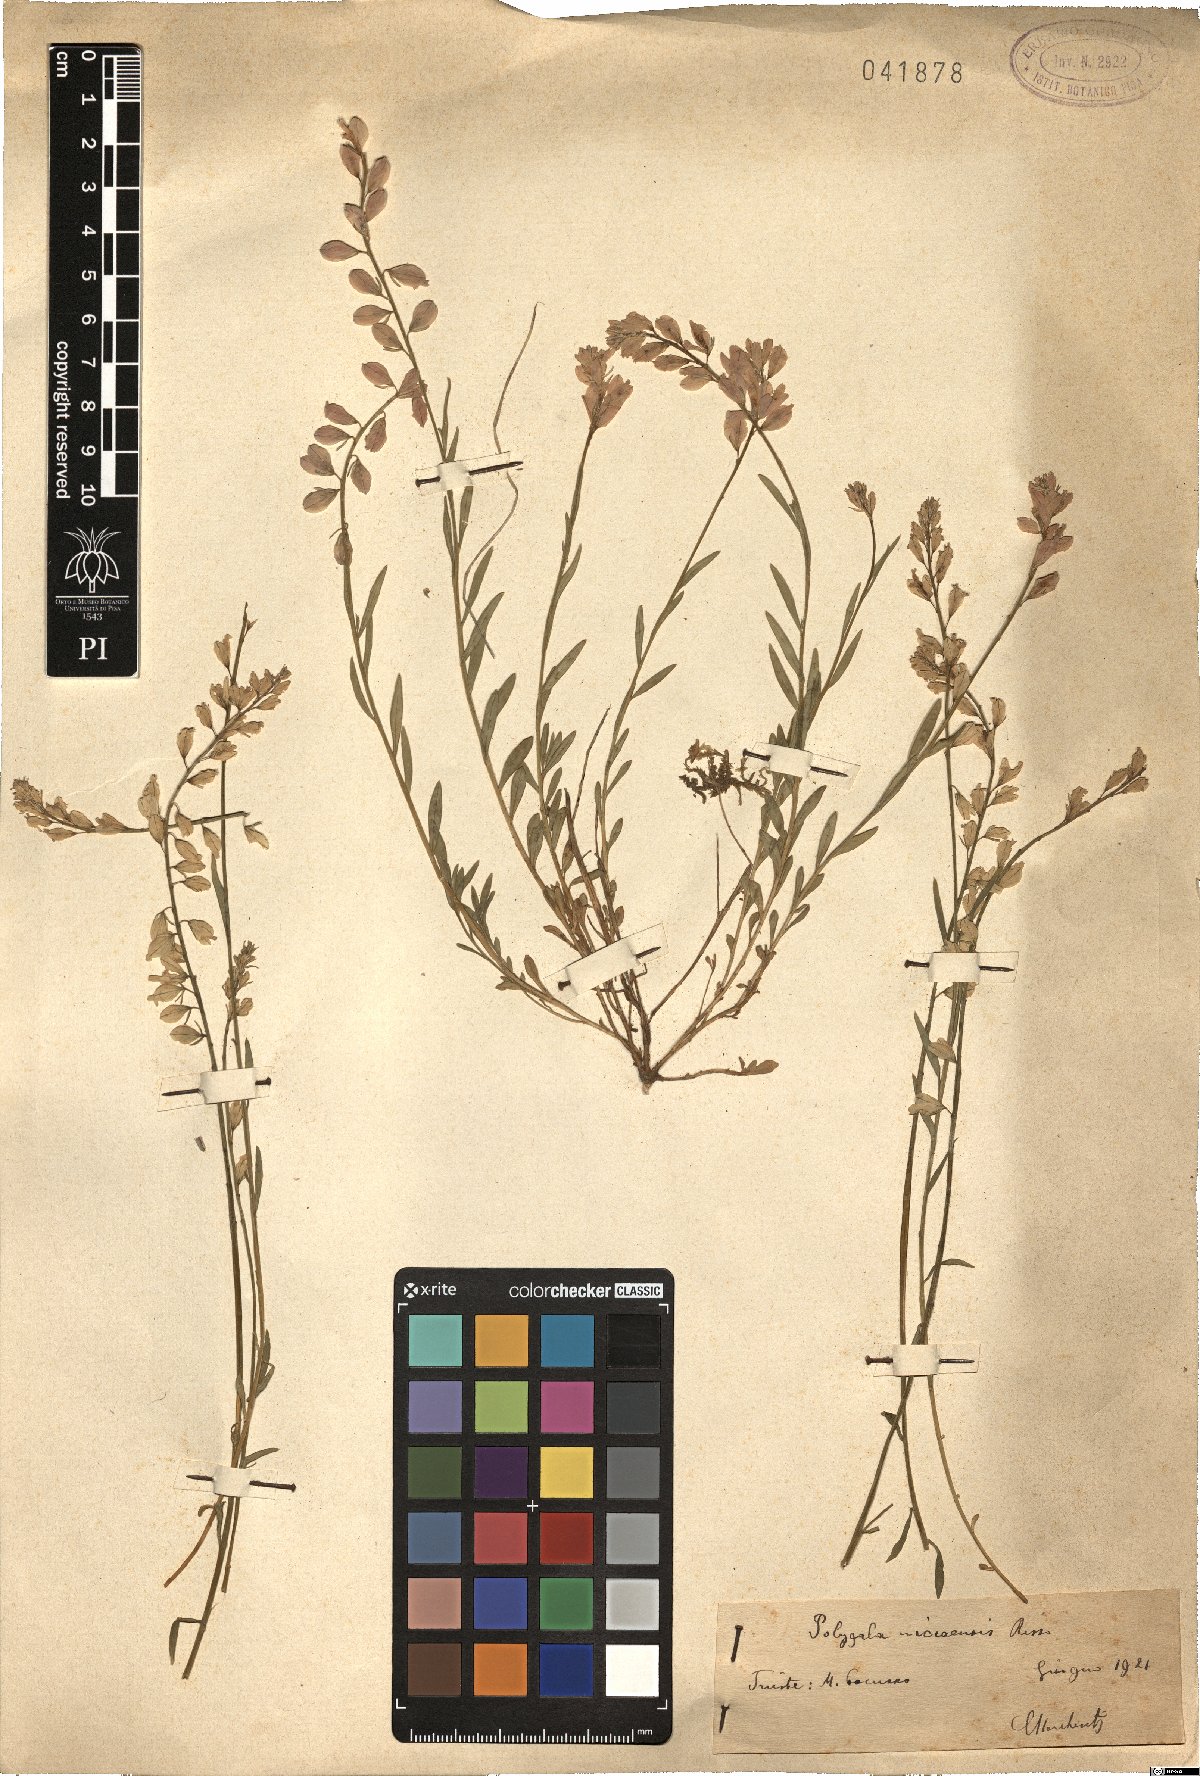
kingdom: Plantae
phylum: Tracheophyta
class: Magnoliopsida
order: Fabales
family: Polygalaceae
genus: Polygala
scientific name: Polygala nicaeensis
